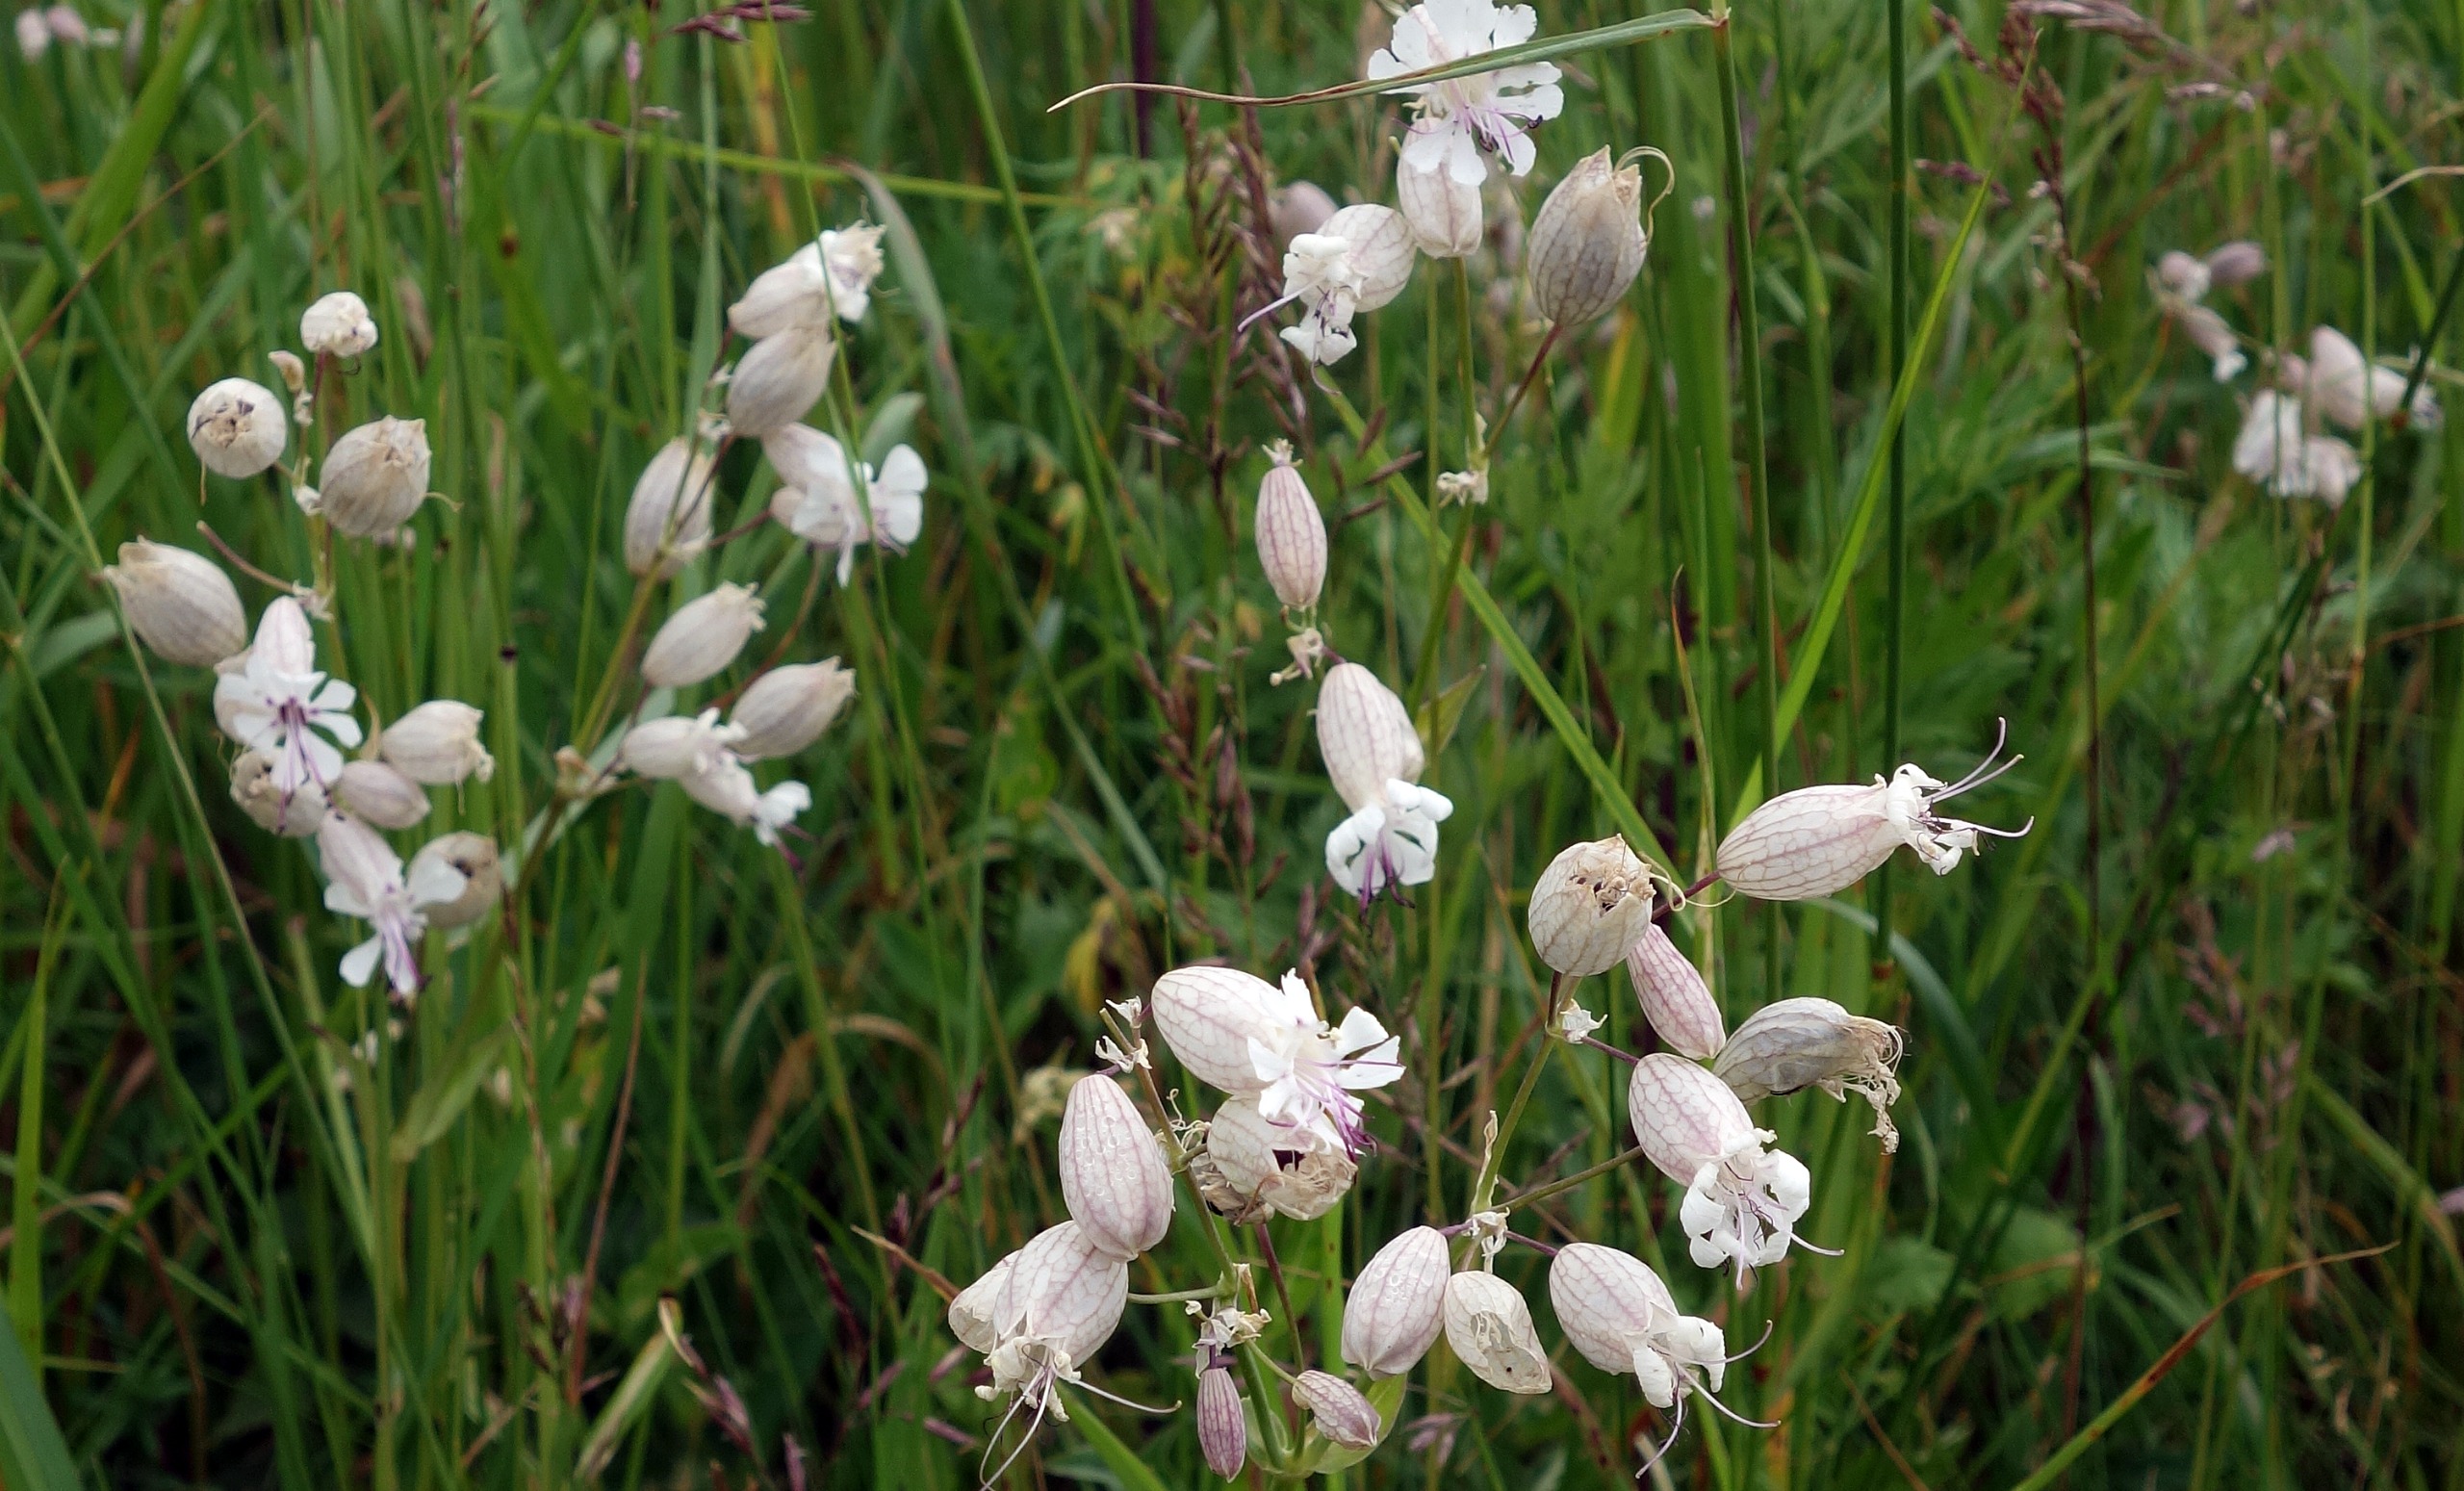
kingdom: Plantae
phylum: Tracheophyta
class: Magnoliopsida
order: Caryophyllales
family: Caryophyllaceae
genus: Silene
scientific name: Silene vulgaris
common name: Blæresmælde
